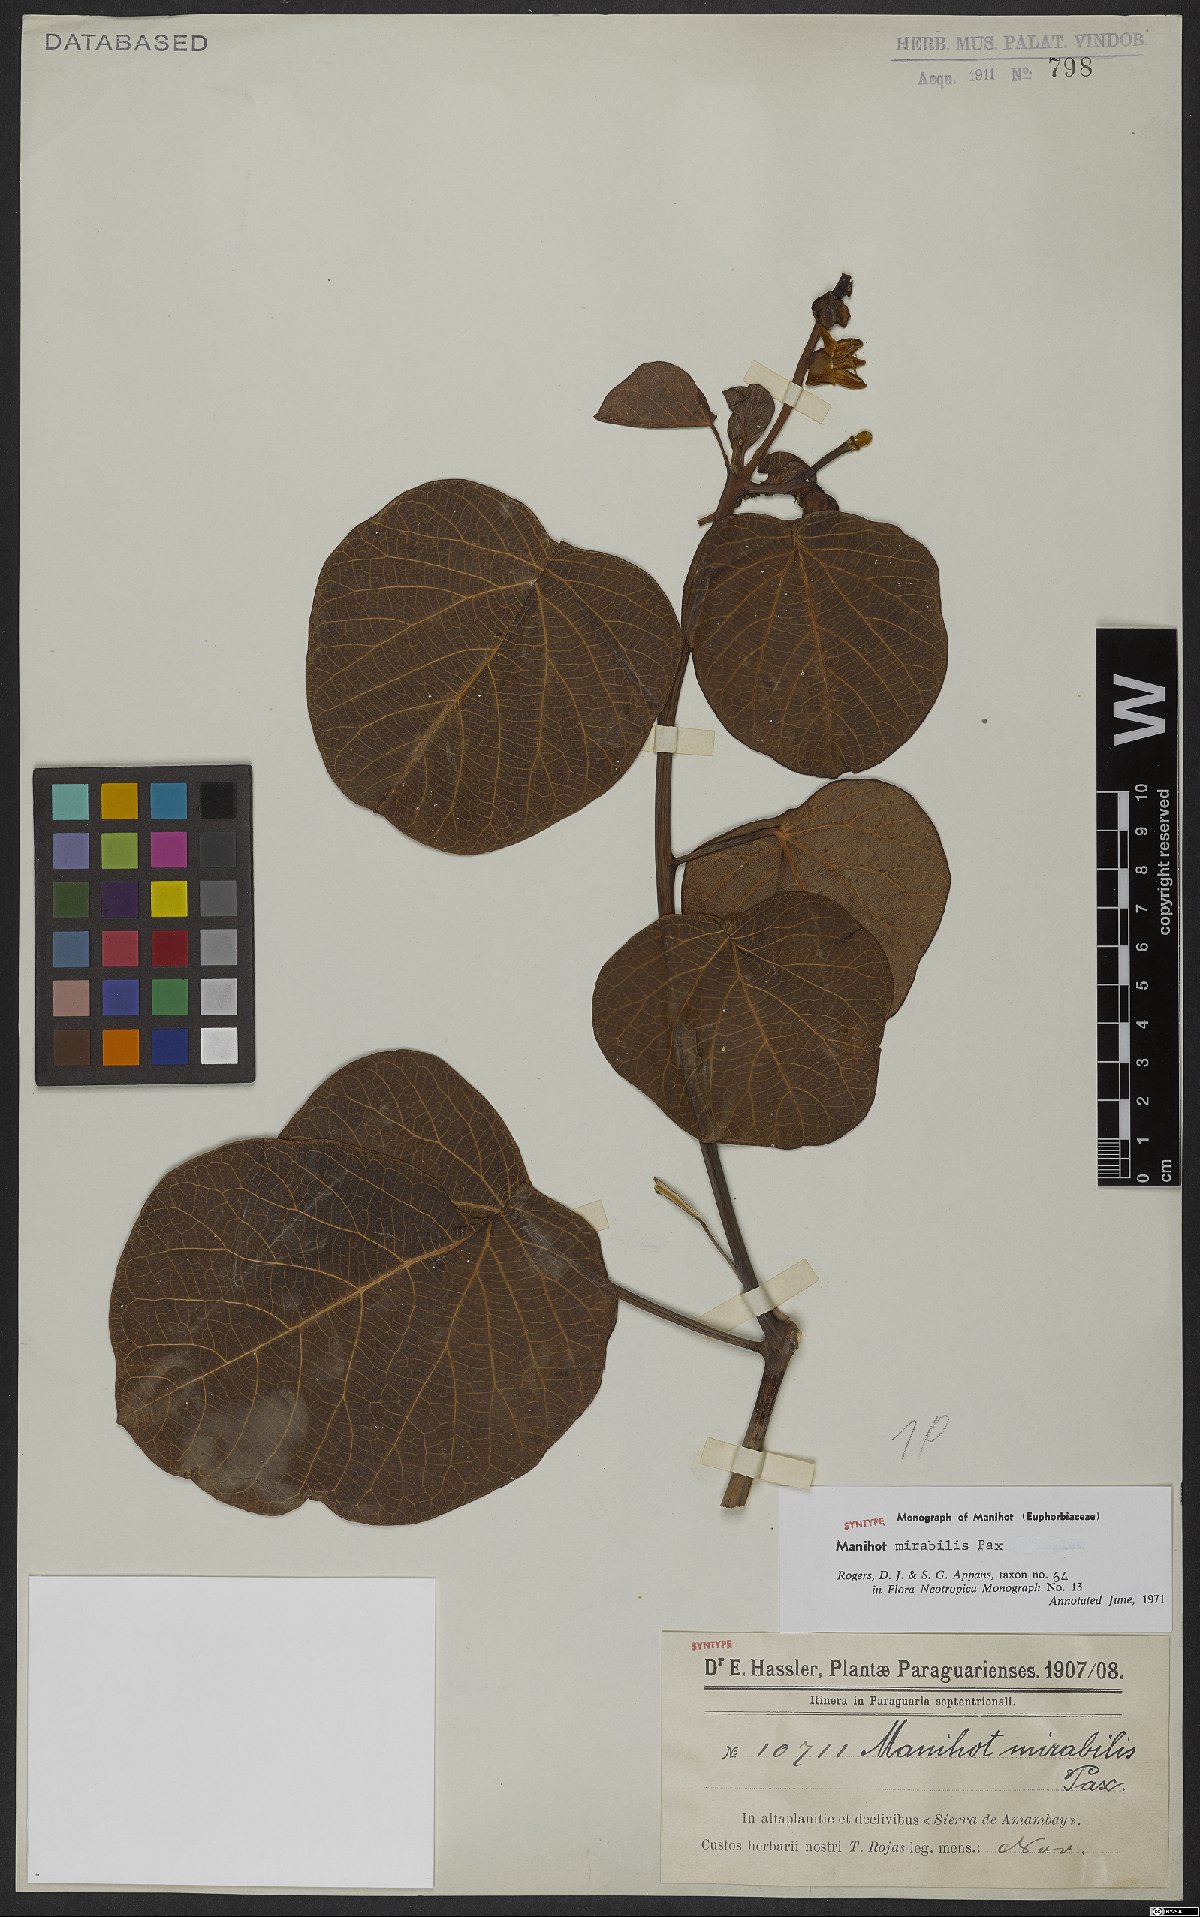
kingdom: Plantae
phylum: Tracheophyta
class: Magnoliopsida
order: Malpighiales
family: Euphorbiaceae
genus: Manihot
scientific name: Manihot mirabilis
